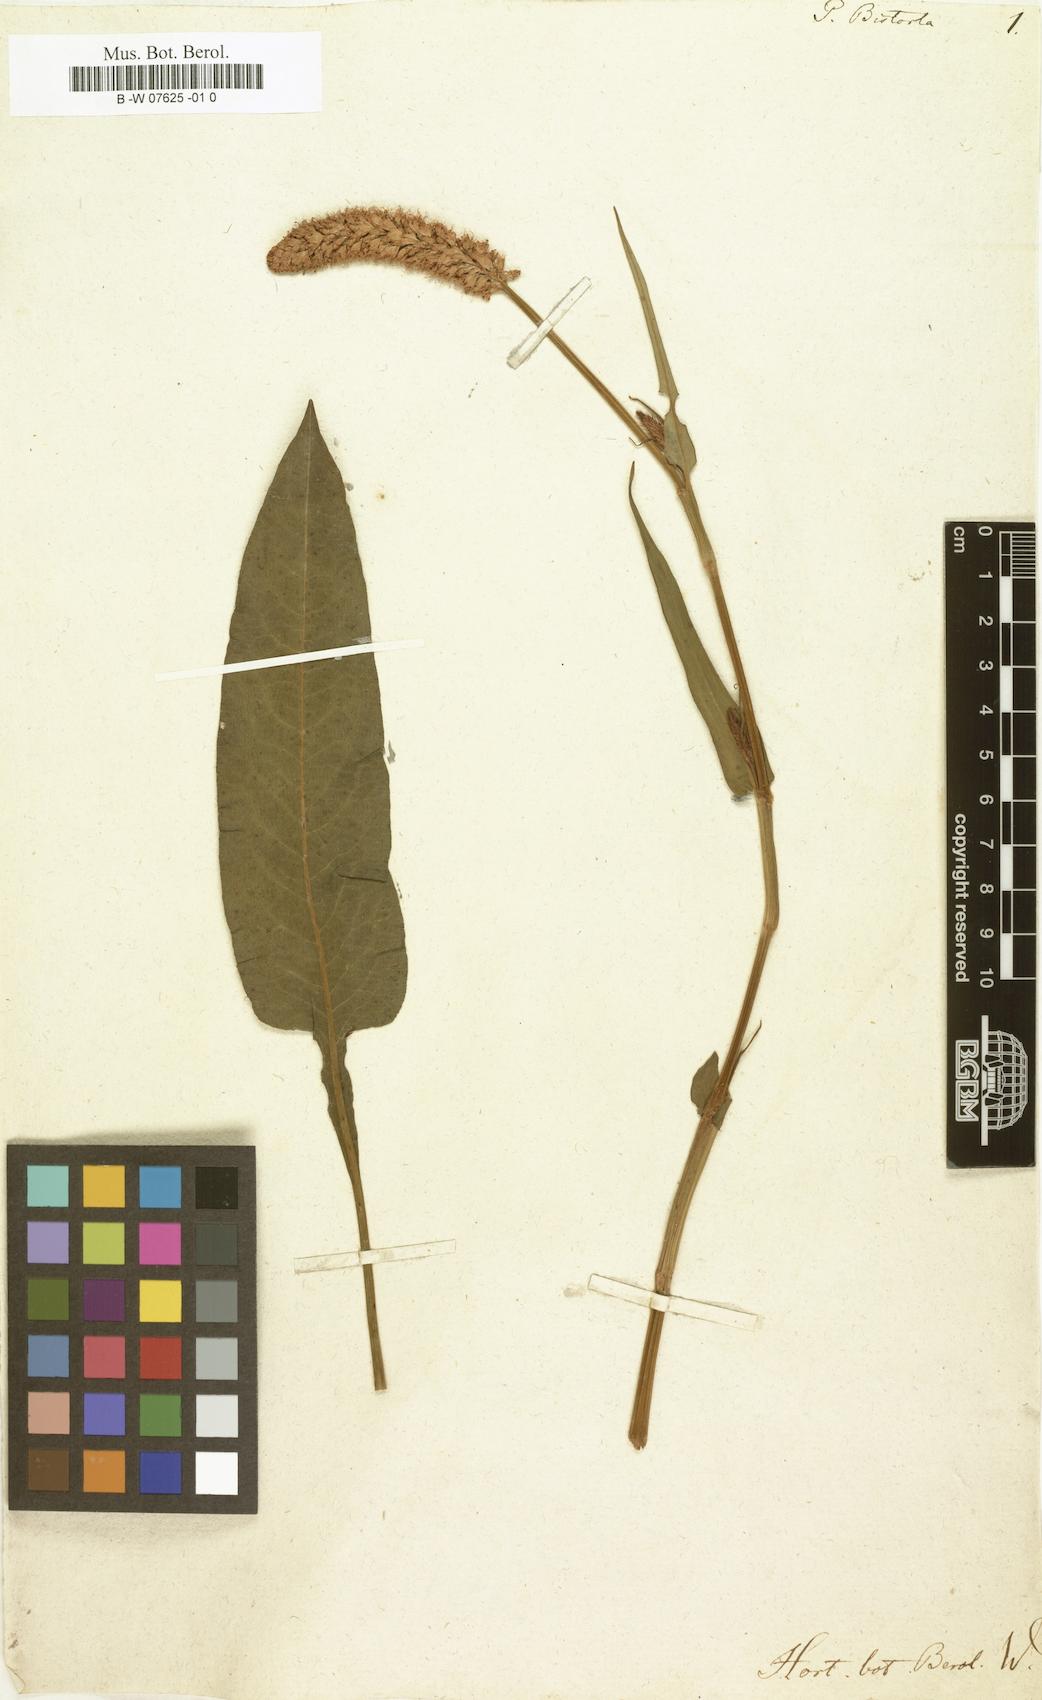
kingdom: Plantae
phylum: Tracheophyta
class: Magnoliopsida
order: Caryophyllales
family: Polygonaceae
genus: Polygonum
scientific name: Polygonum bistorta
